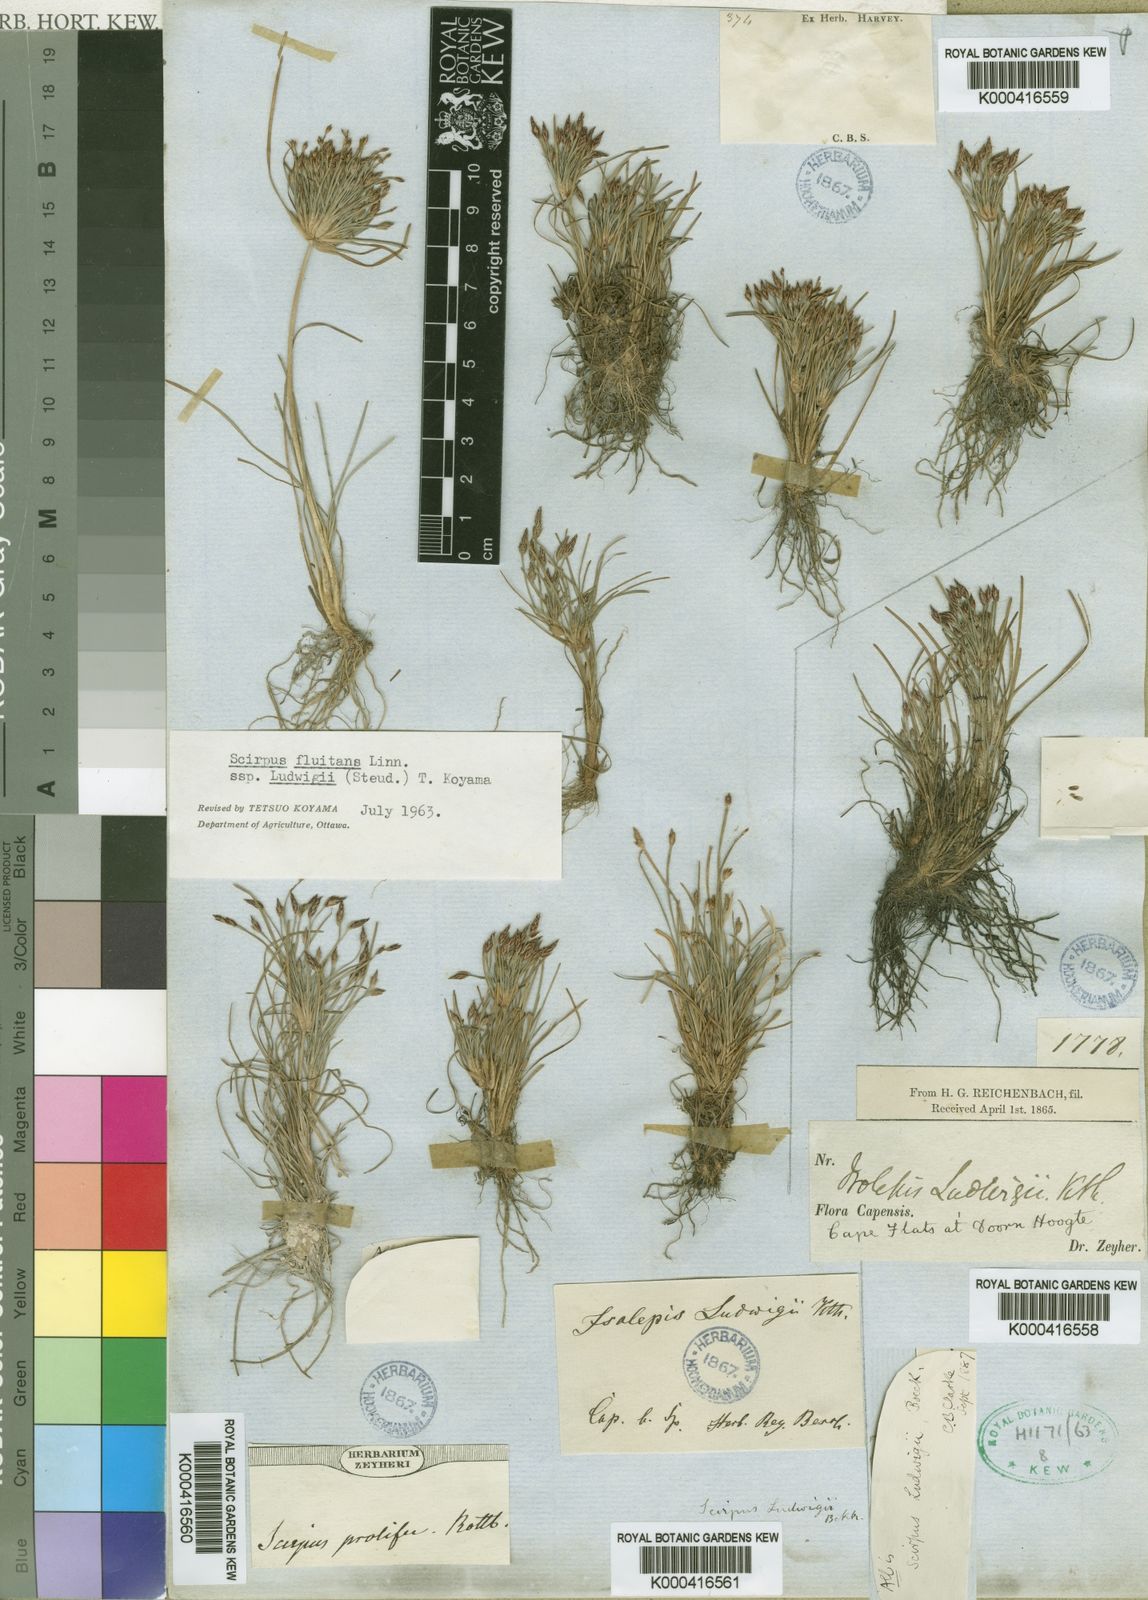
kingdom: Plantae
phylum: Tracheophyta
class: Liliopsida
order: Poales
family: Cyperaceae
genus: Isolepis
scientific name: Isolepis ludwigii
